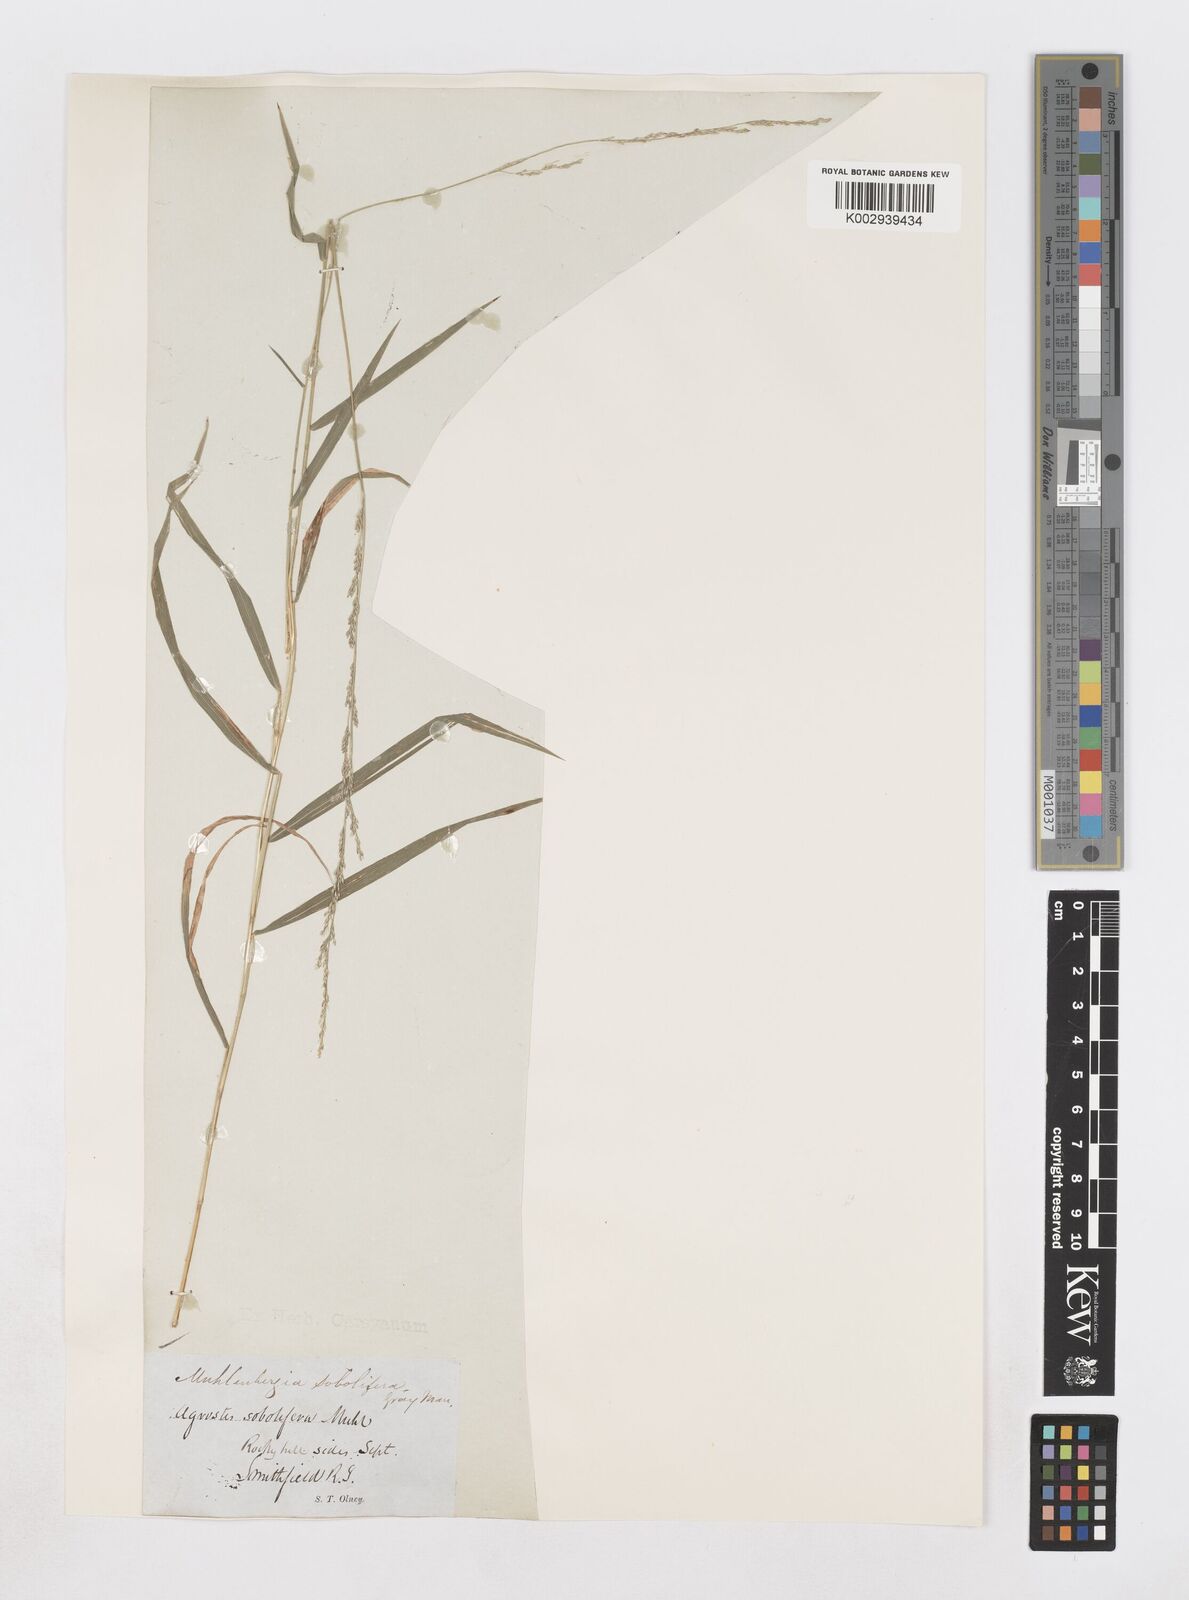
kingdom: Plantae
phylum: Tracheophyta
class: Liliopsida
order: Poales
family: Poaceae
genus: Muhlenbergia
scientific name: Muhlenbergia sobolifera
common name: Creeping muhly
